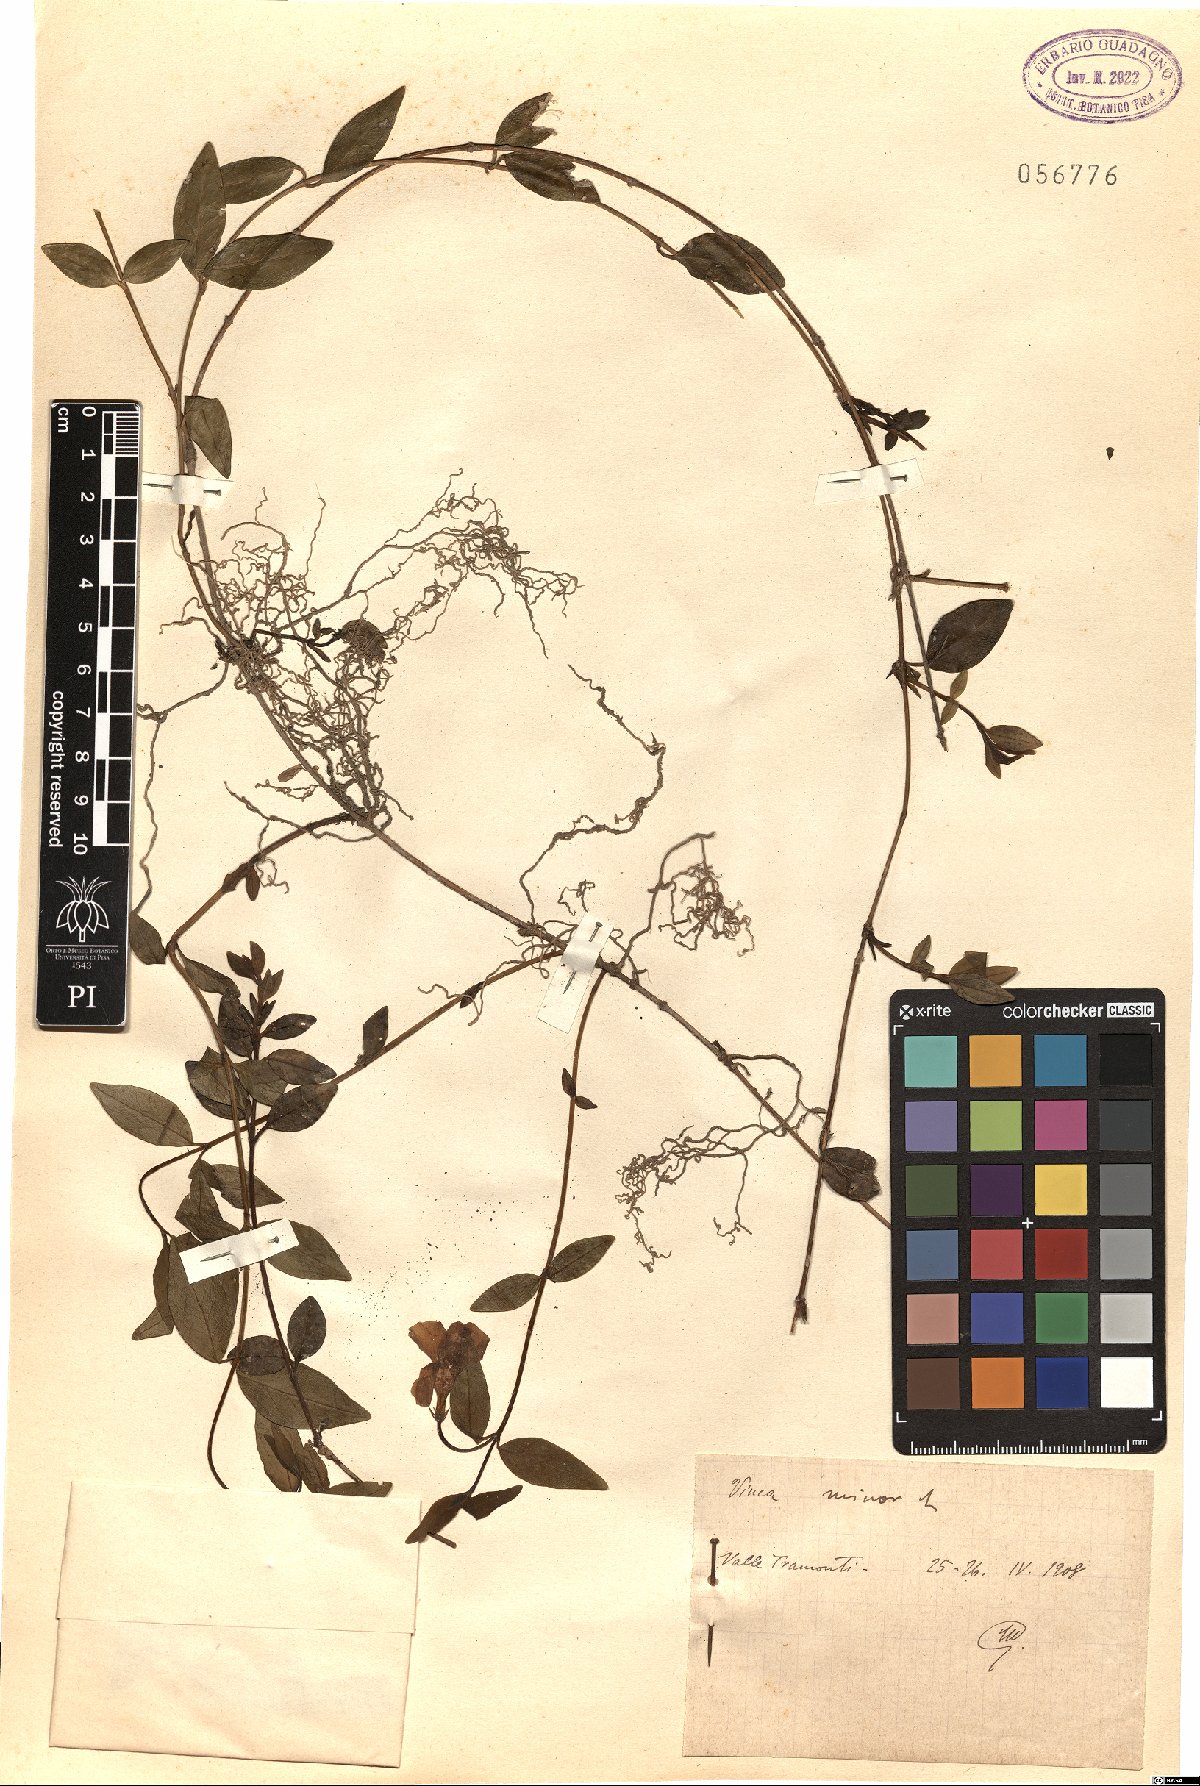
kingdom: Plantae
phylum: Tracheophyta
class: Magnoliopsida
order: Gentianales
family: Apocynaceae
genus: Vinca
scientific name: Vinca minor
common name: Lesser periwinkle
